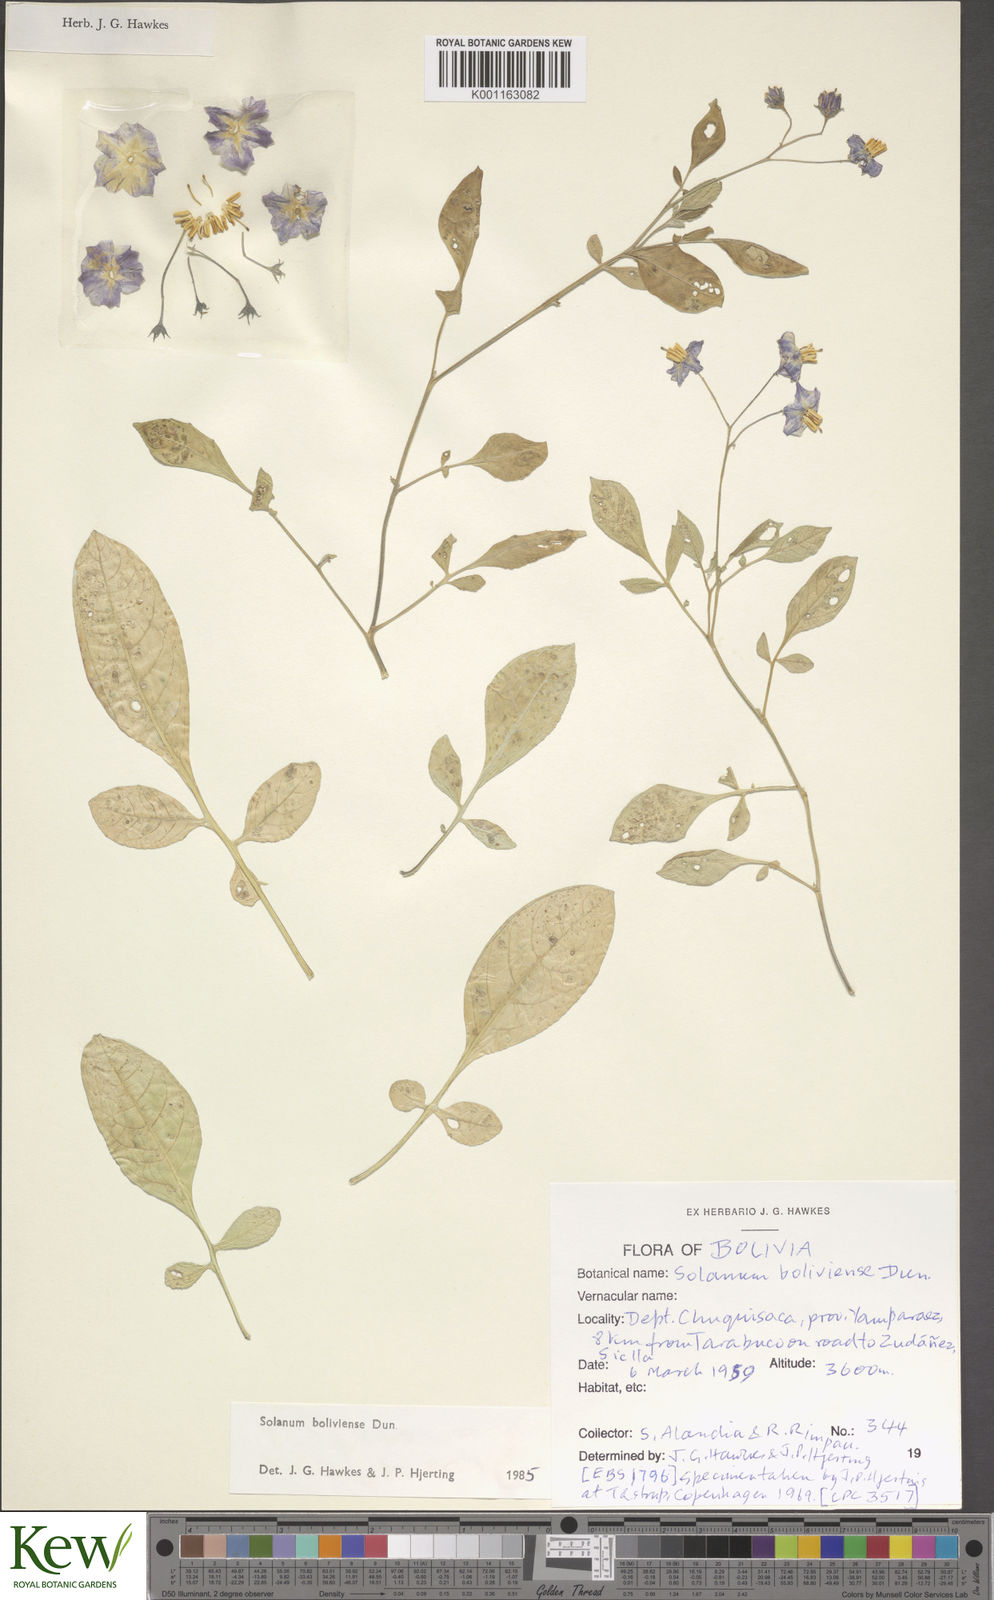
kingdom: Plantae
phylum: Tracheophyta
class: Magnoliopsida
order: Solanales
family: Solanaceae
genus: Solanum
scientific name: Solanum boliviense
